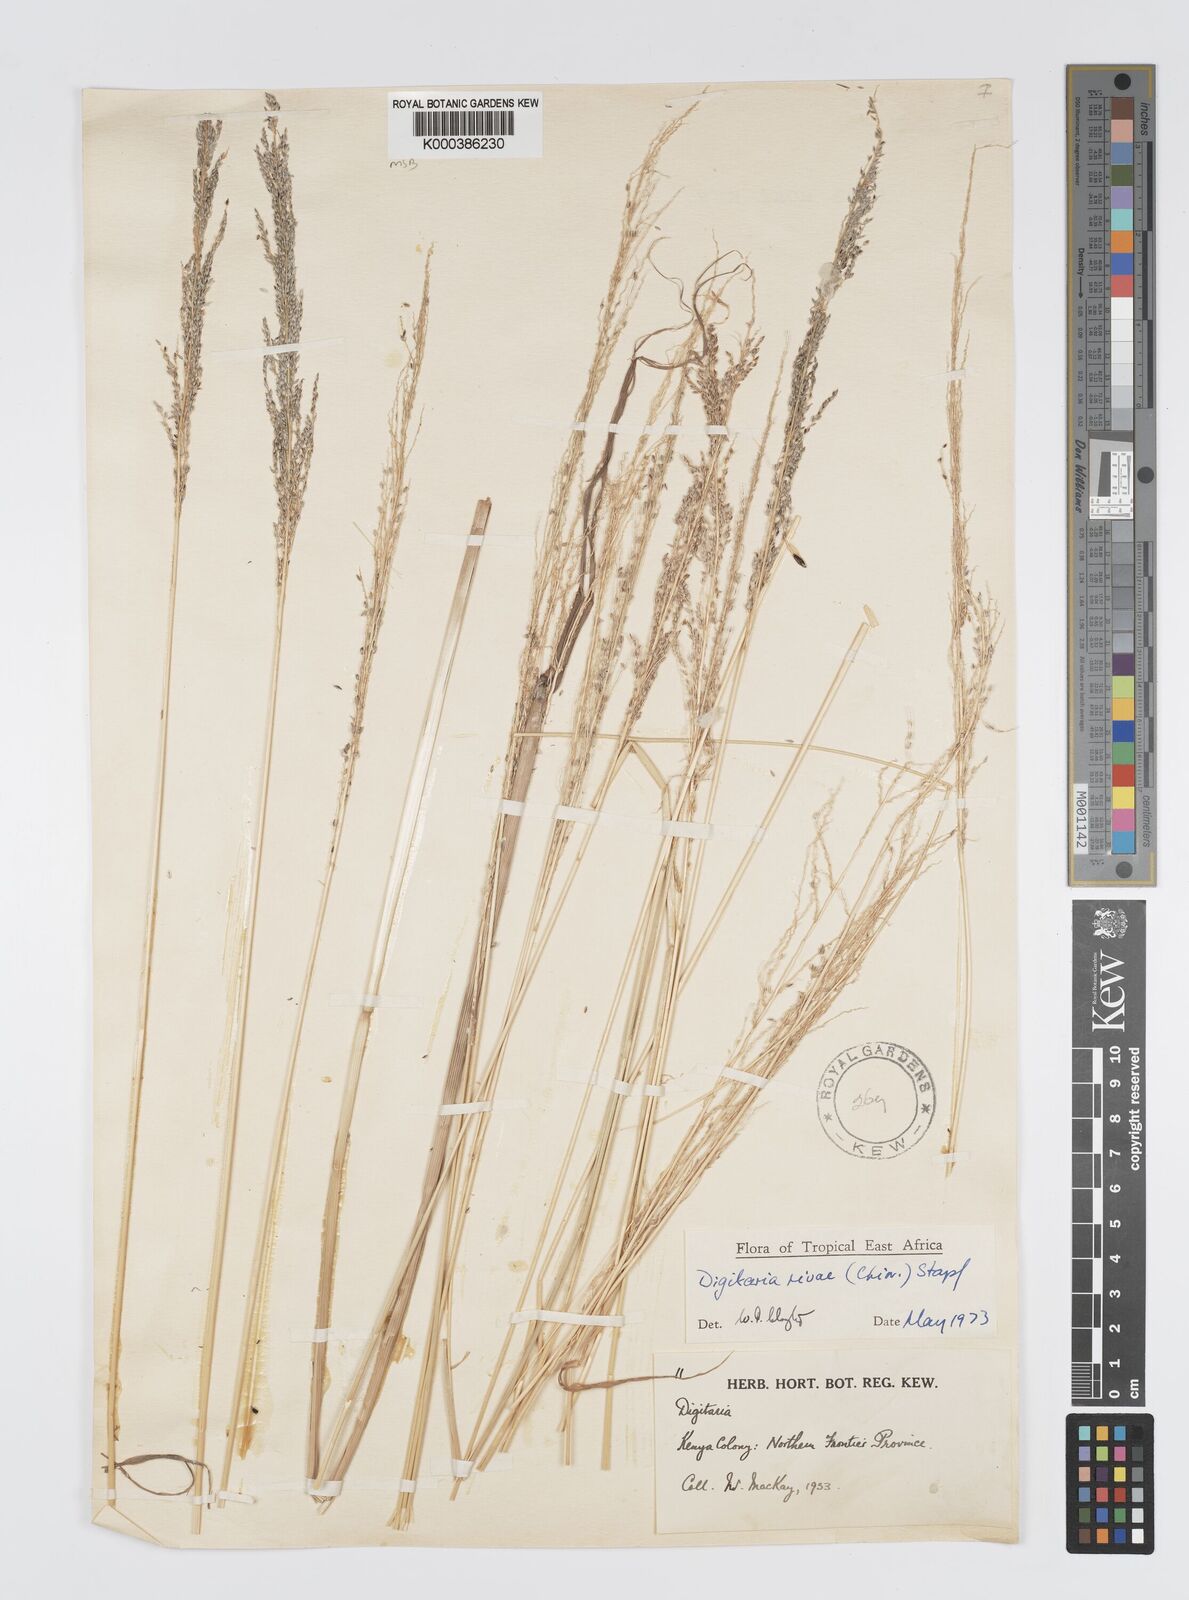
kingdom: Plantae
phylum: Tracheophyta
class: Liliopsida
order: Poales
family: Poaceae
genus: Digitaria
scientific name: Digitaria rivae
